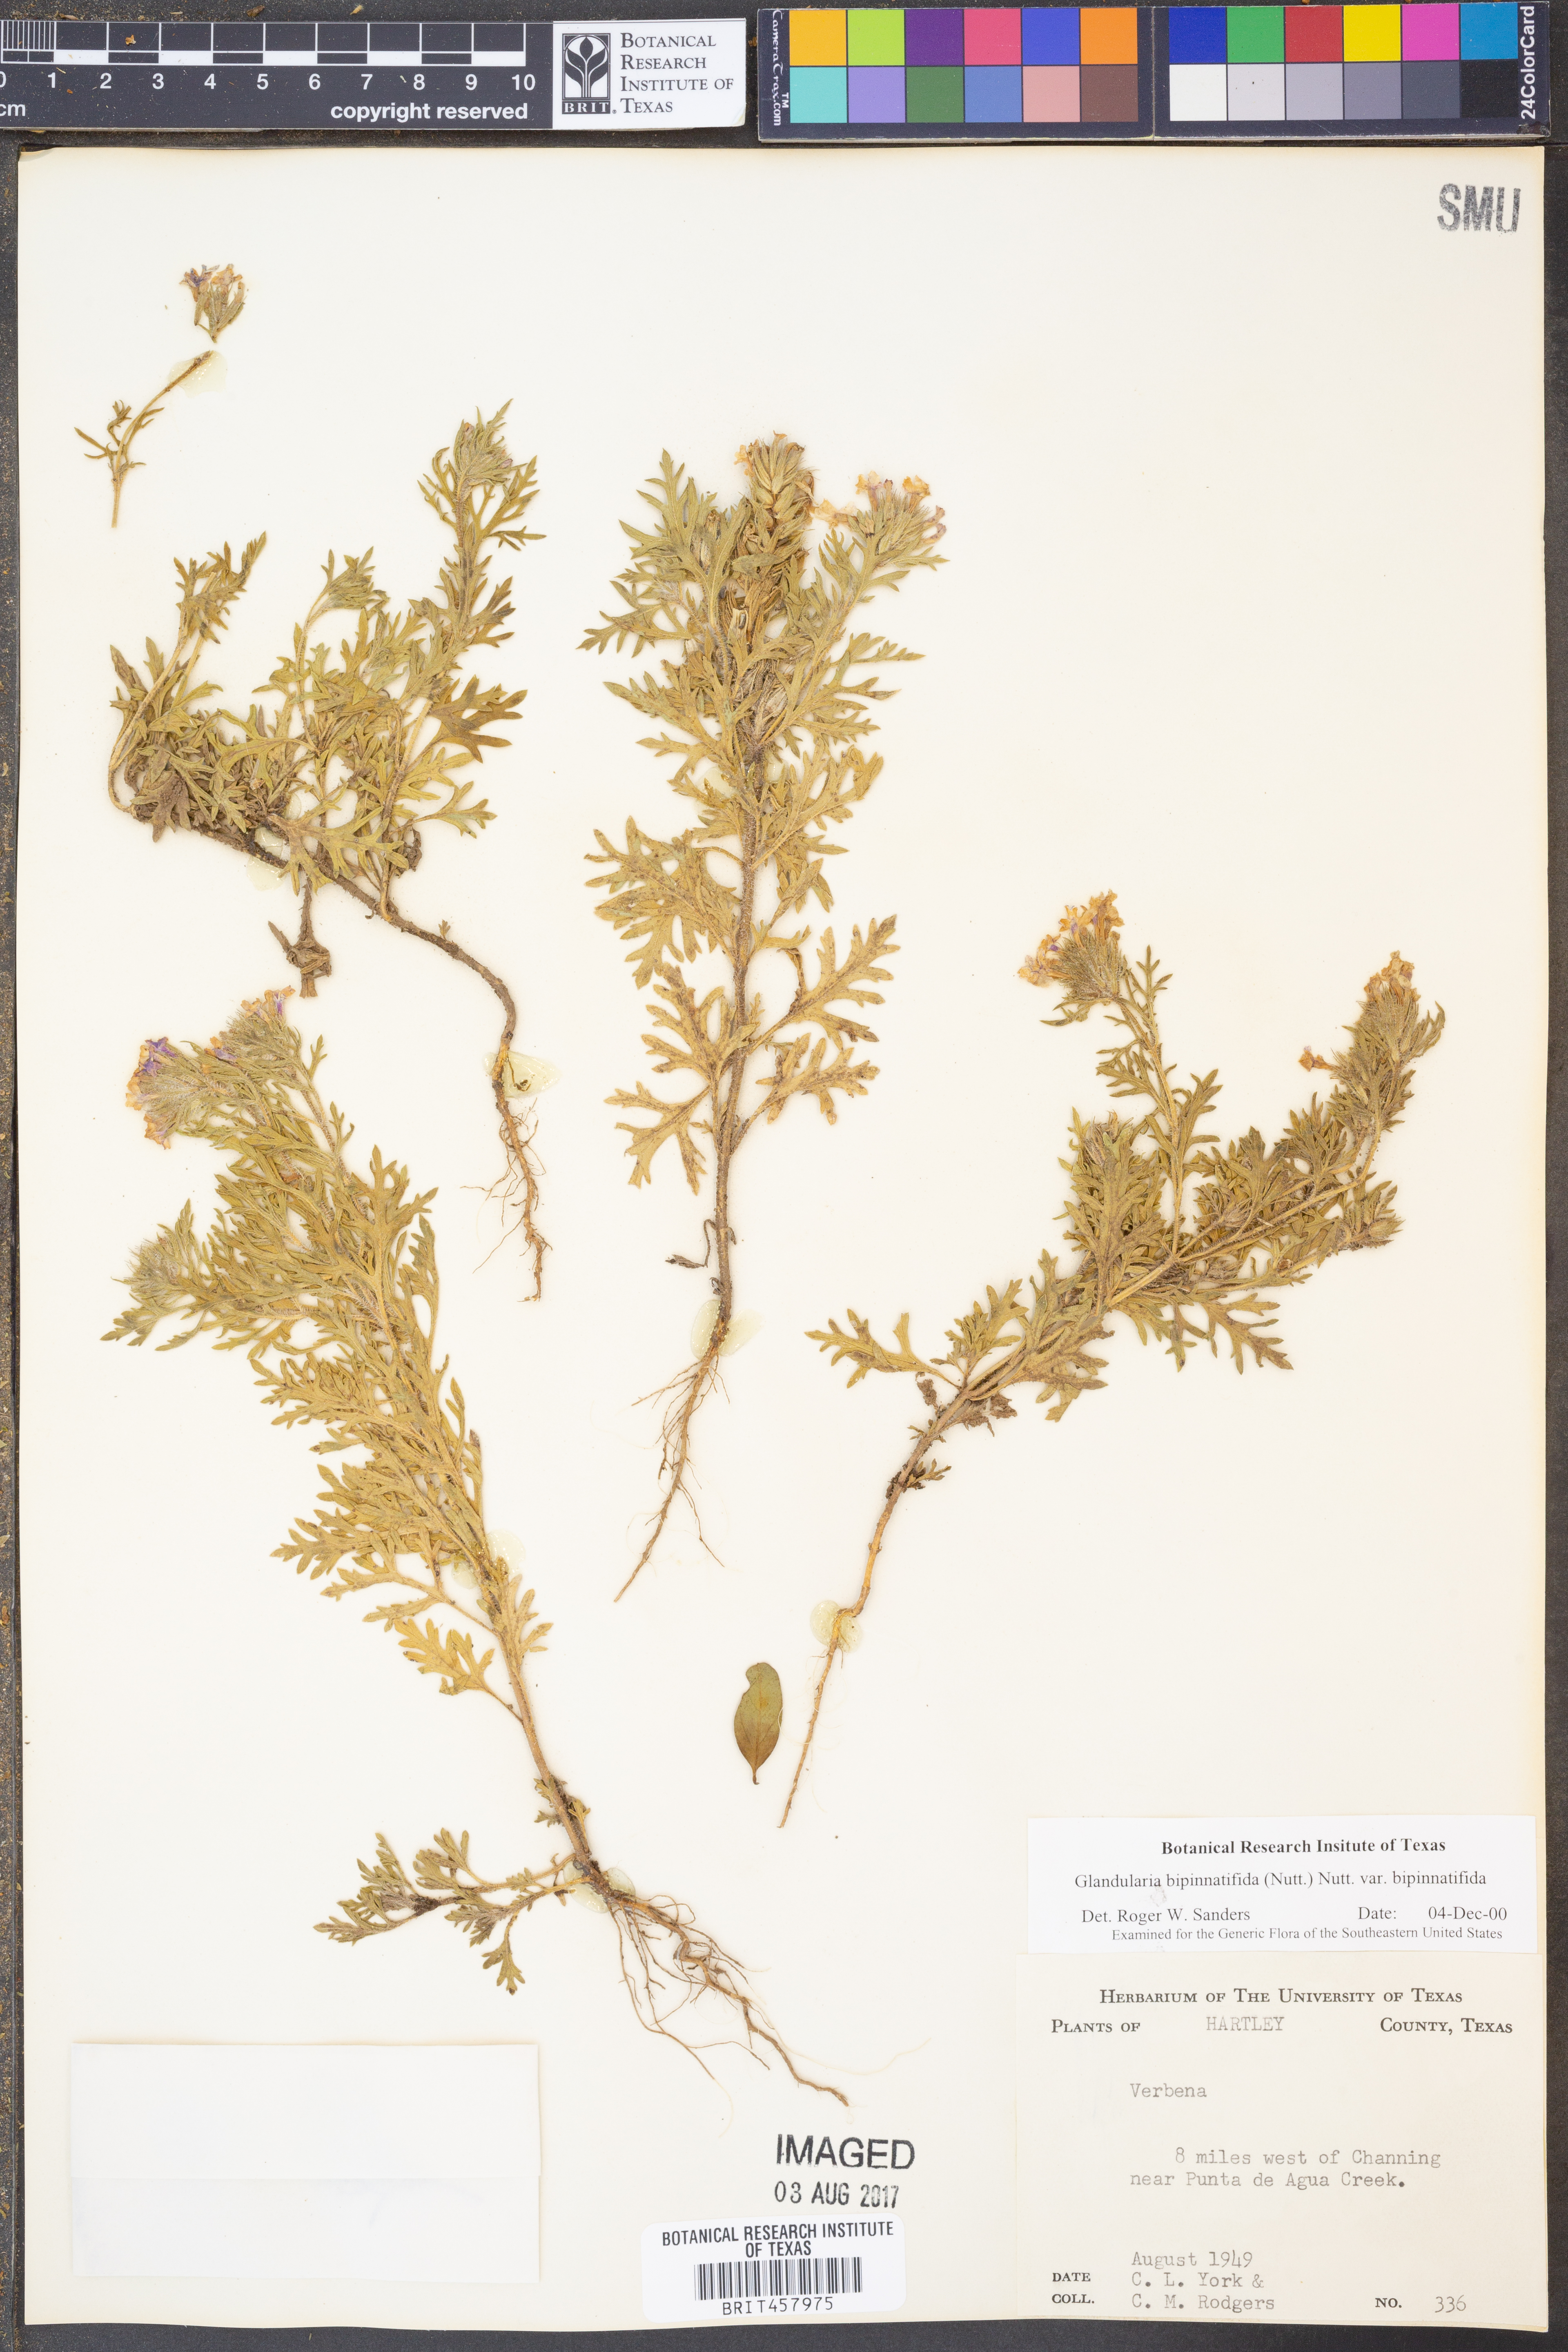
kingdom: Plantae
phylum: Tracheophyta
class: Magnoliopsida
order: Lamiales
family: Verbenaceae
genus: Verbena
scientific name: Verbena bipinnatifida
